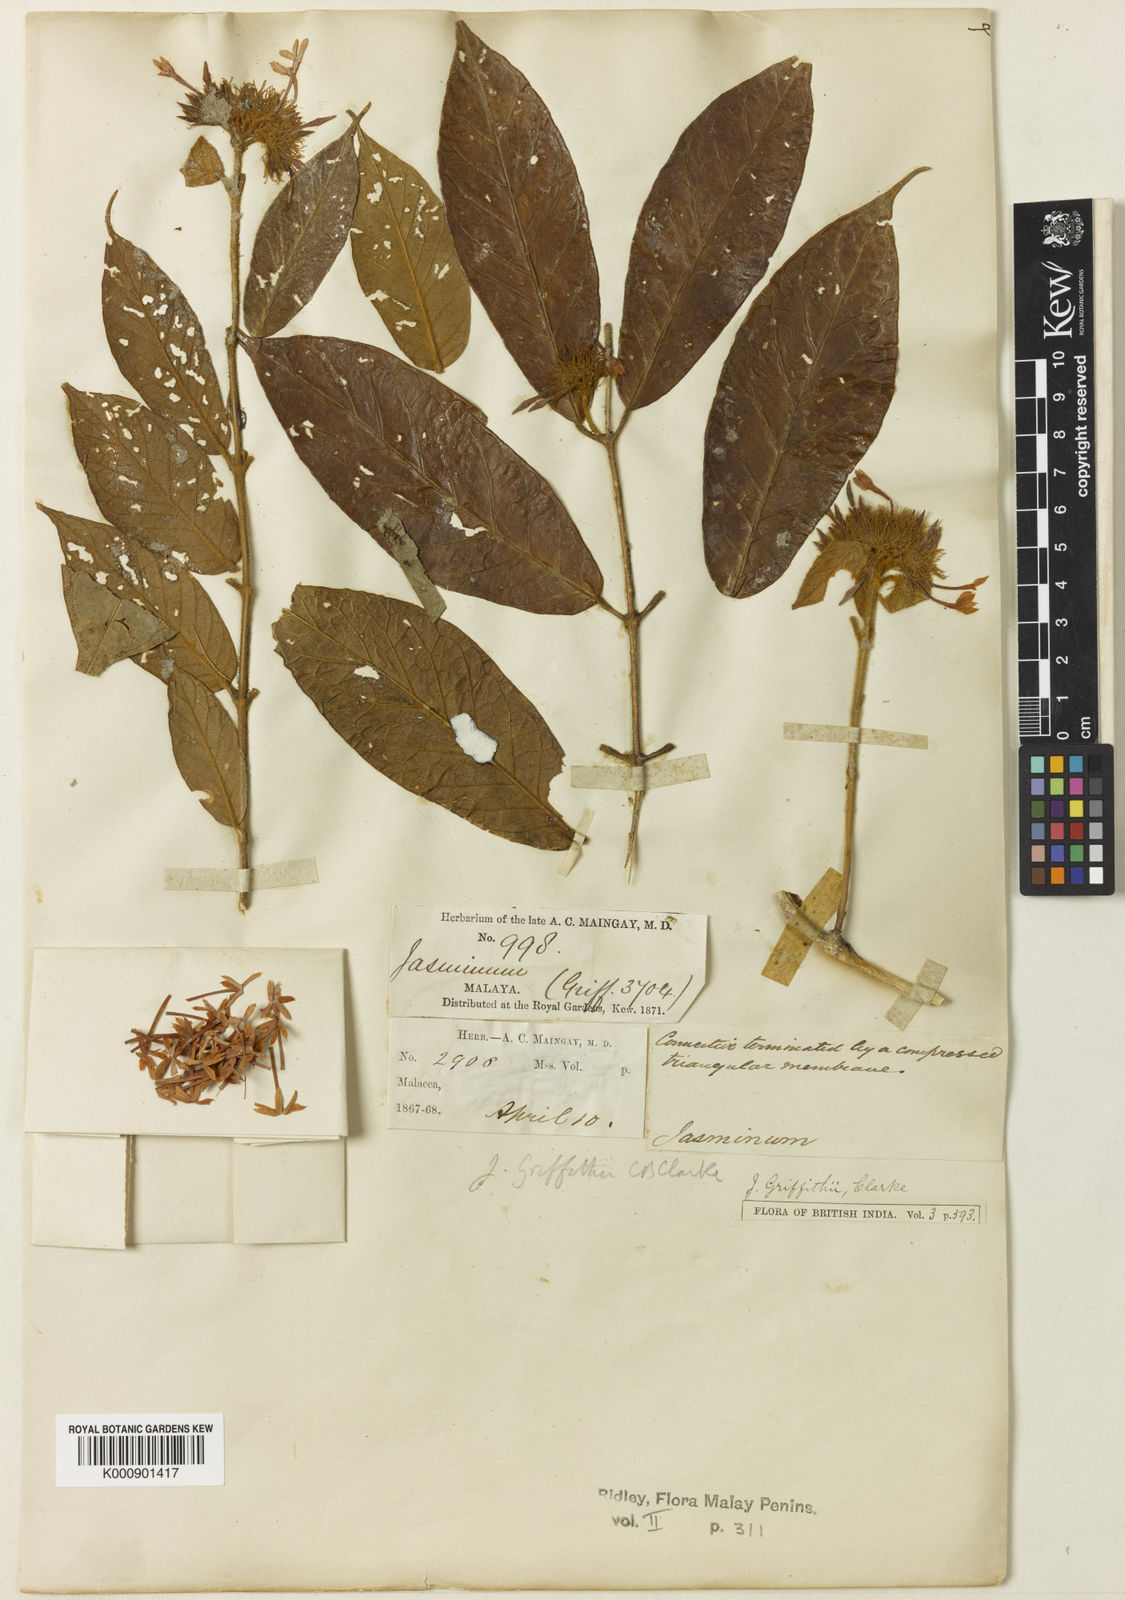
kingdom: Plantae
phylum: Tracheophyta
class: Magnoliopsida
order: Lamiales
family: Oleaceae
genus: Jasminum
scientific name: Jasminum griffithii
